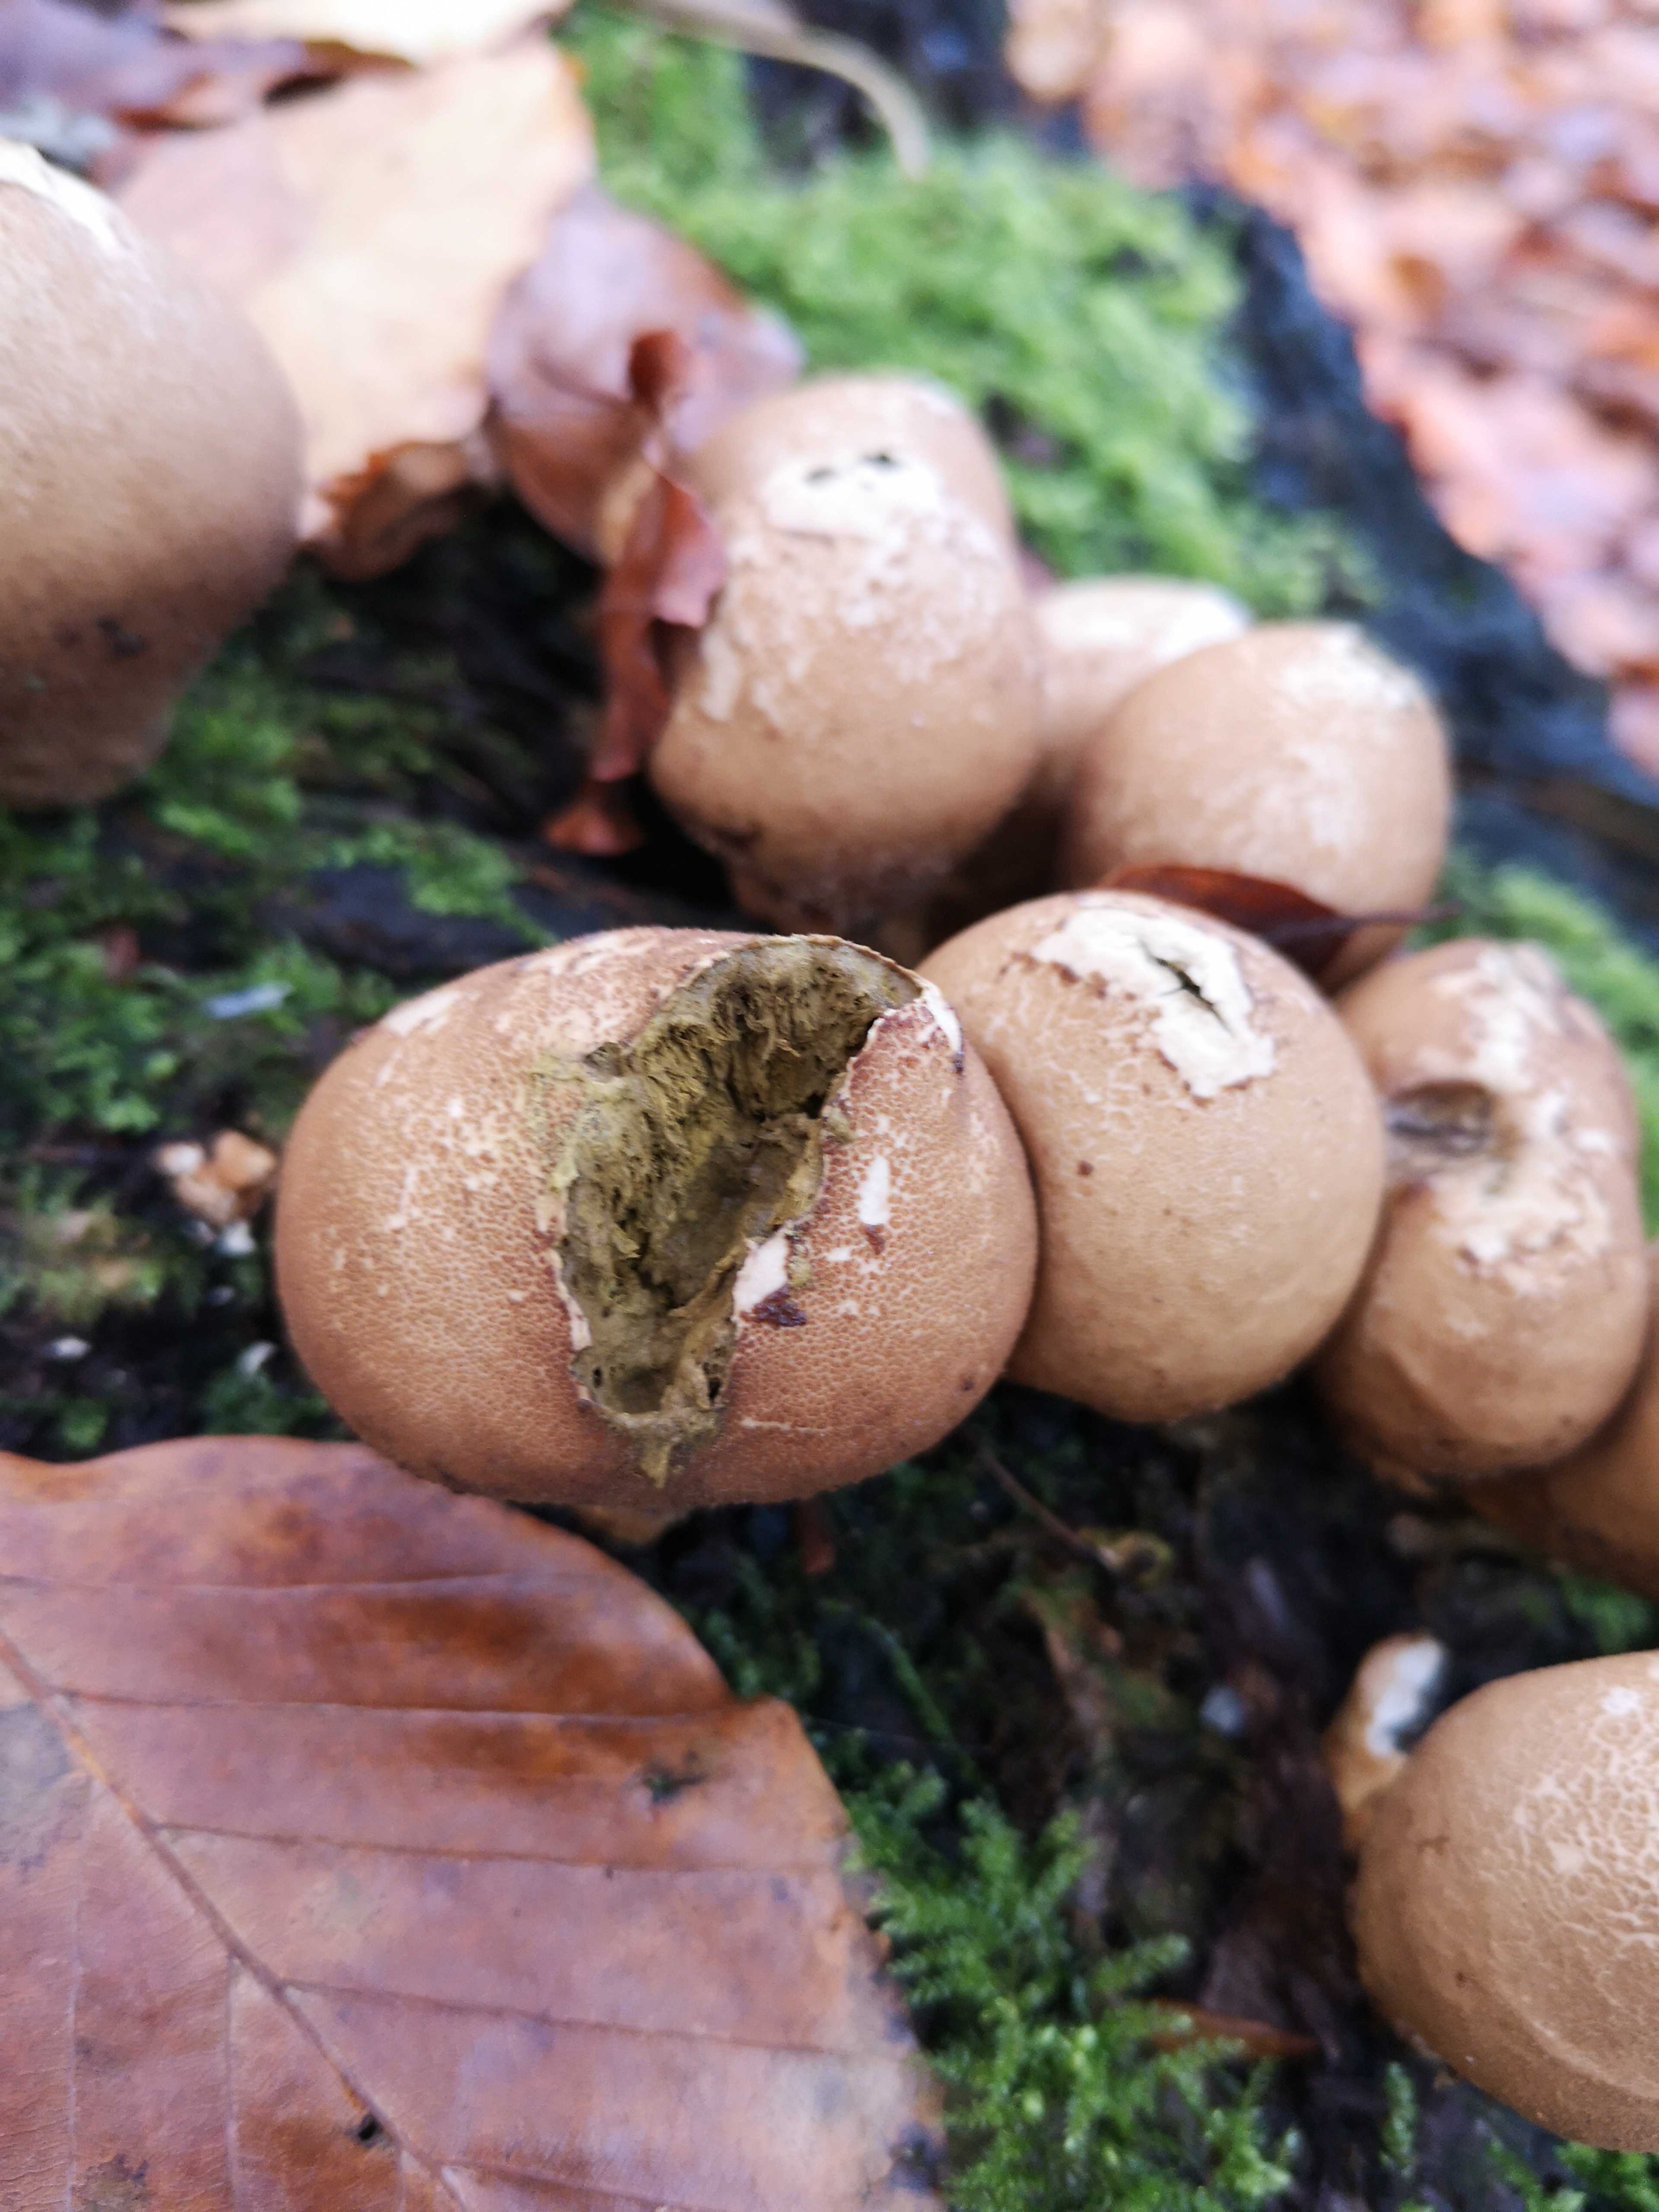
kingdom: Fungi
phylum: Basidiomycota
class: Agaricomycetes
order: Agaricales
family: Lycoperdaceae
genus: Apioperdon
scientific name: Apioperdon pyriforme
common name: pære-støvbold
